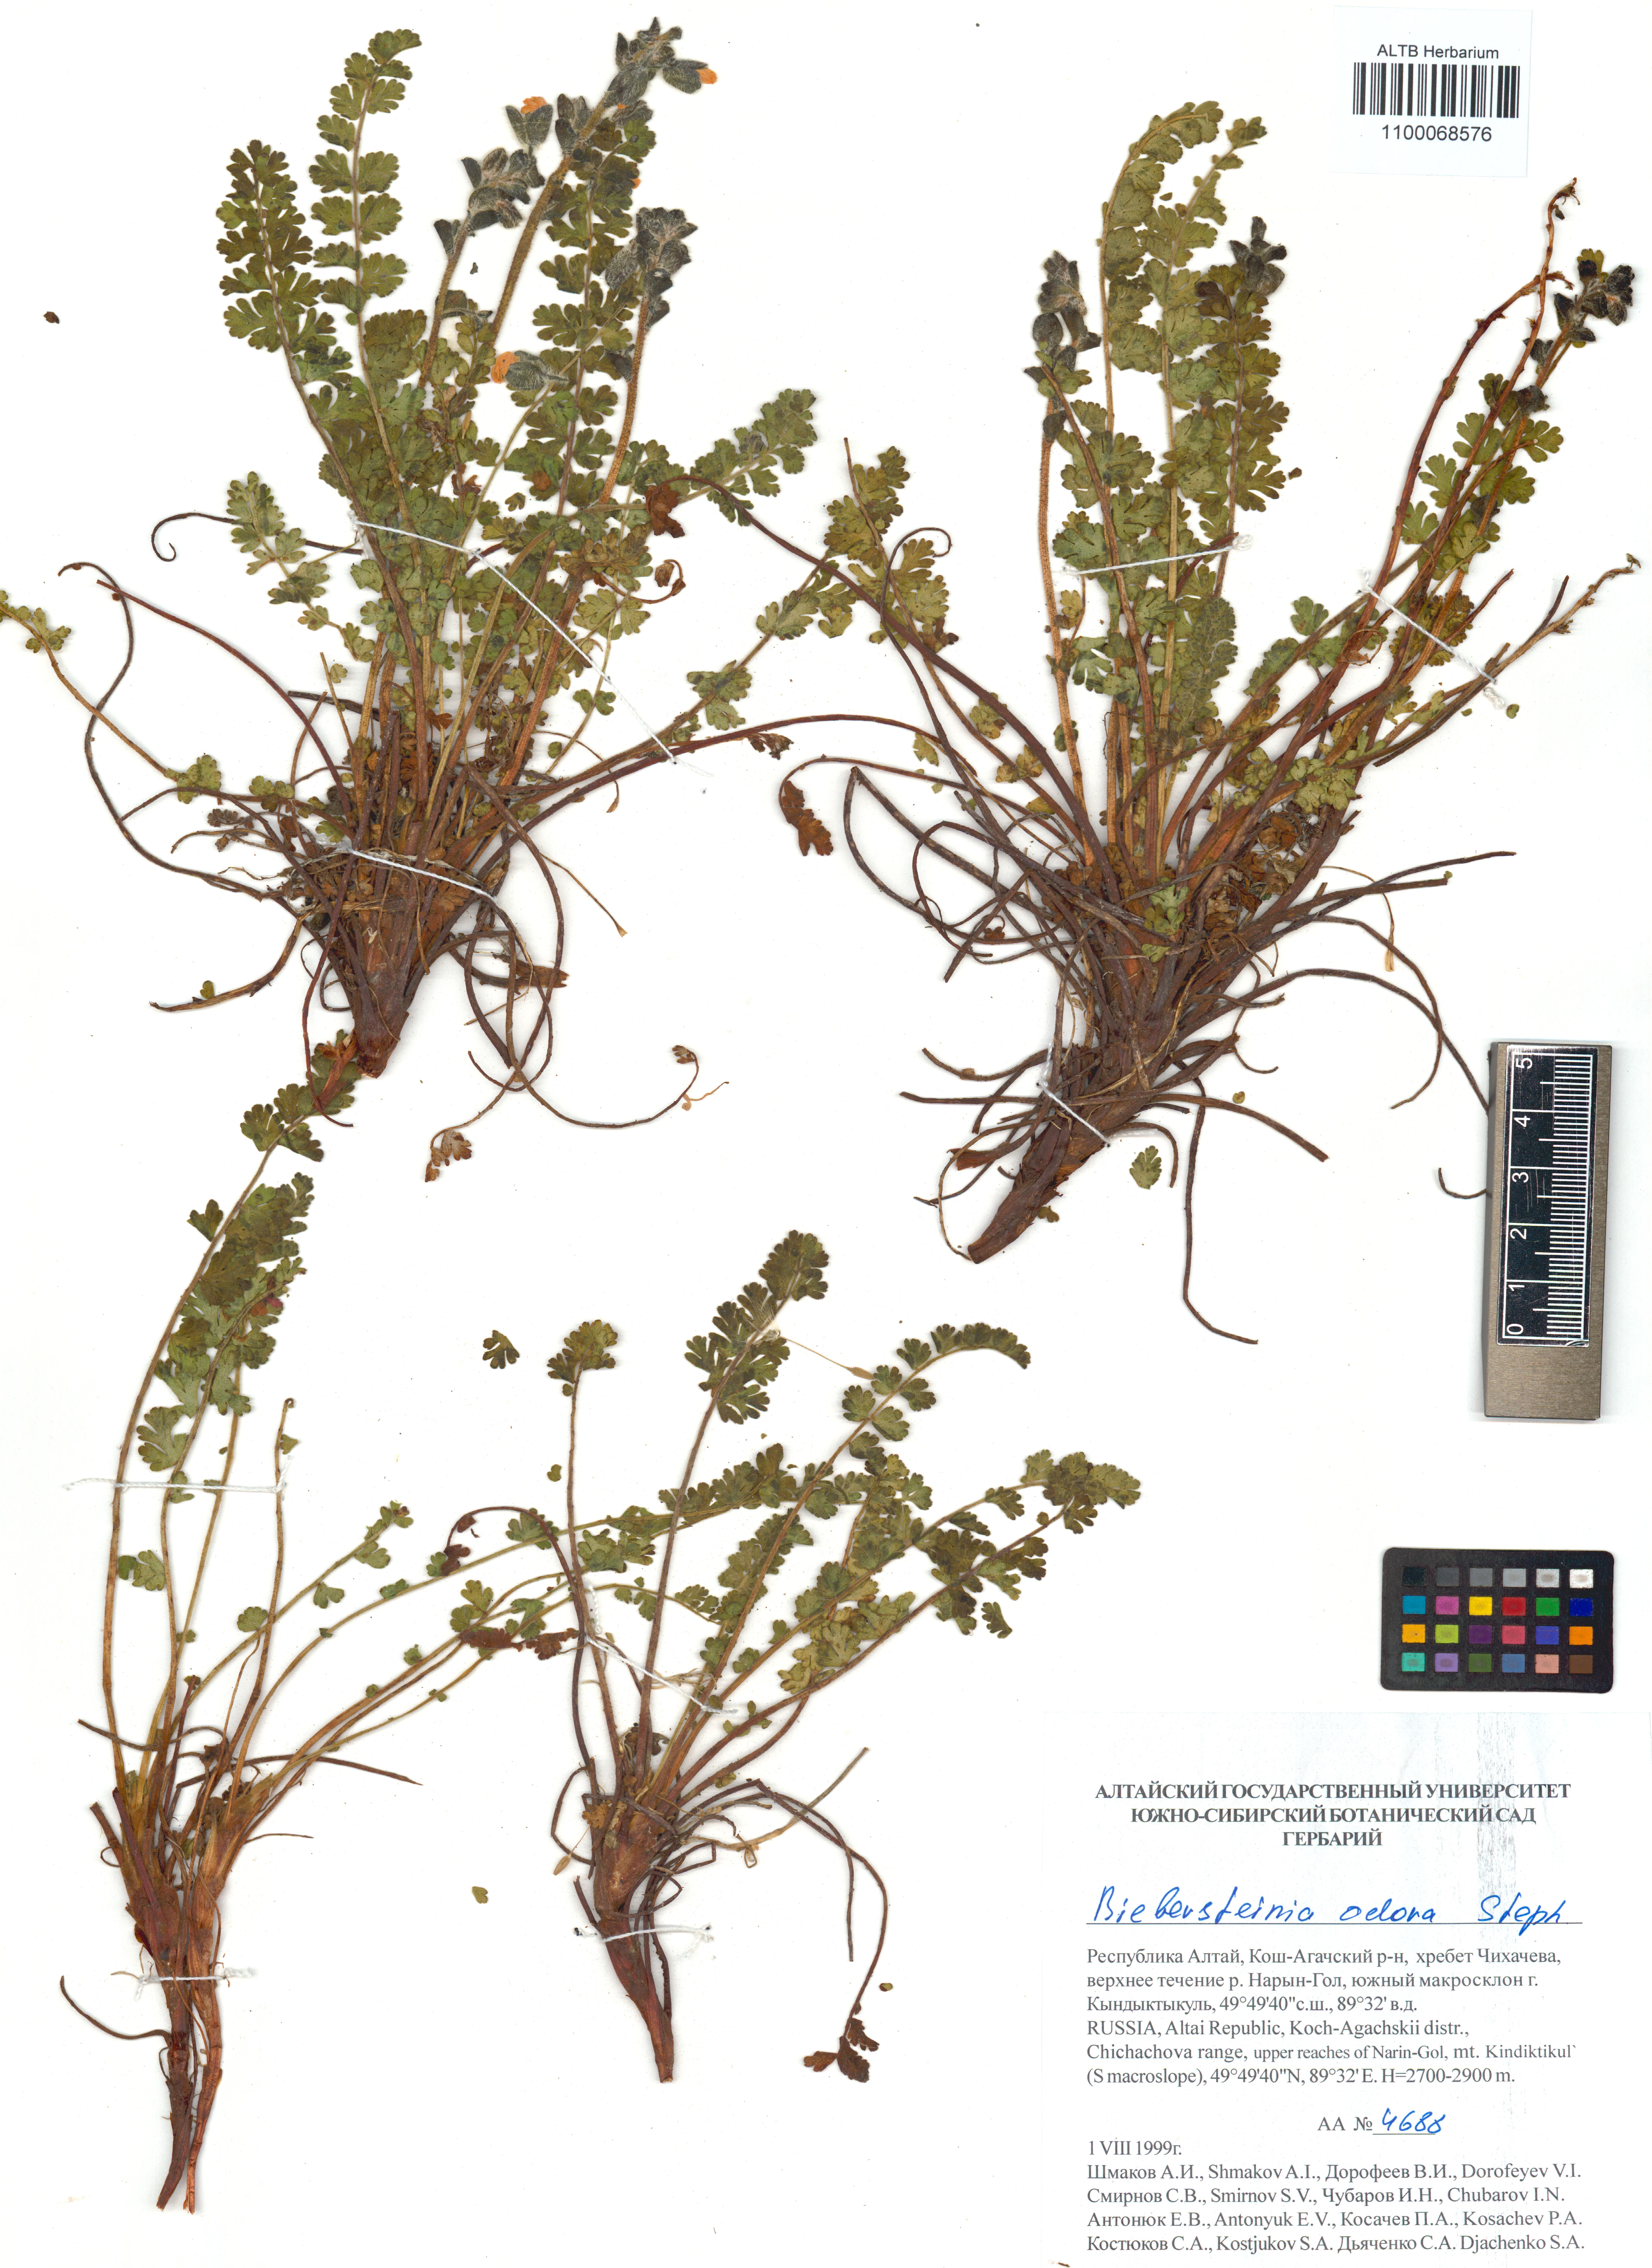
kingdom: Plantae
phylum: Tracheophyta
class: Magnoliopsida
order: Sapindales
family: Biebersteiniaceae
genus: Biebersteinia
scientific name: Biebersteinia odora
